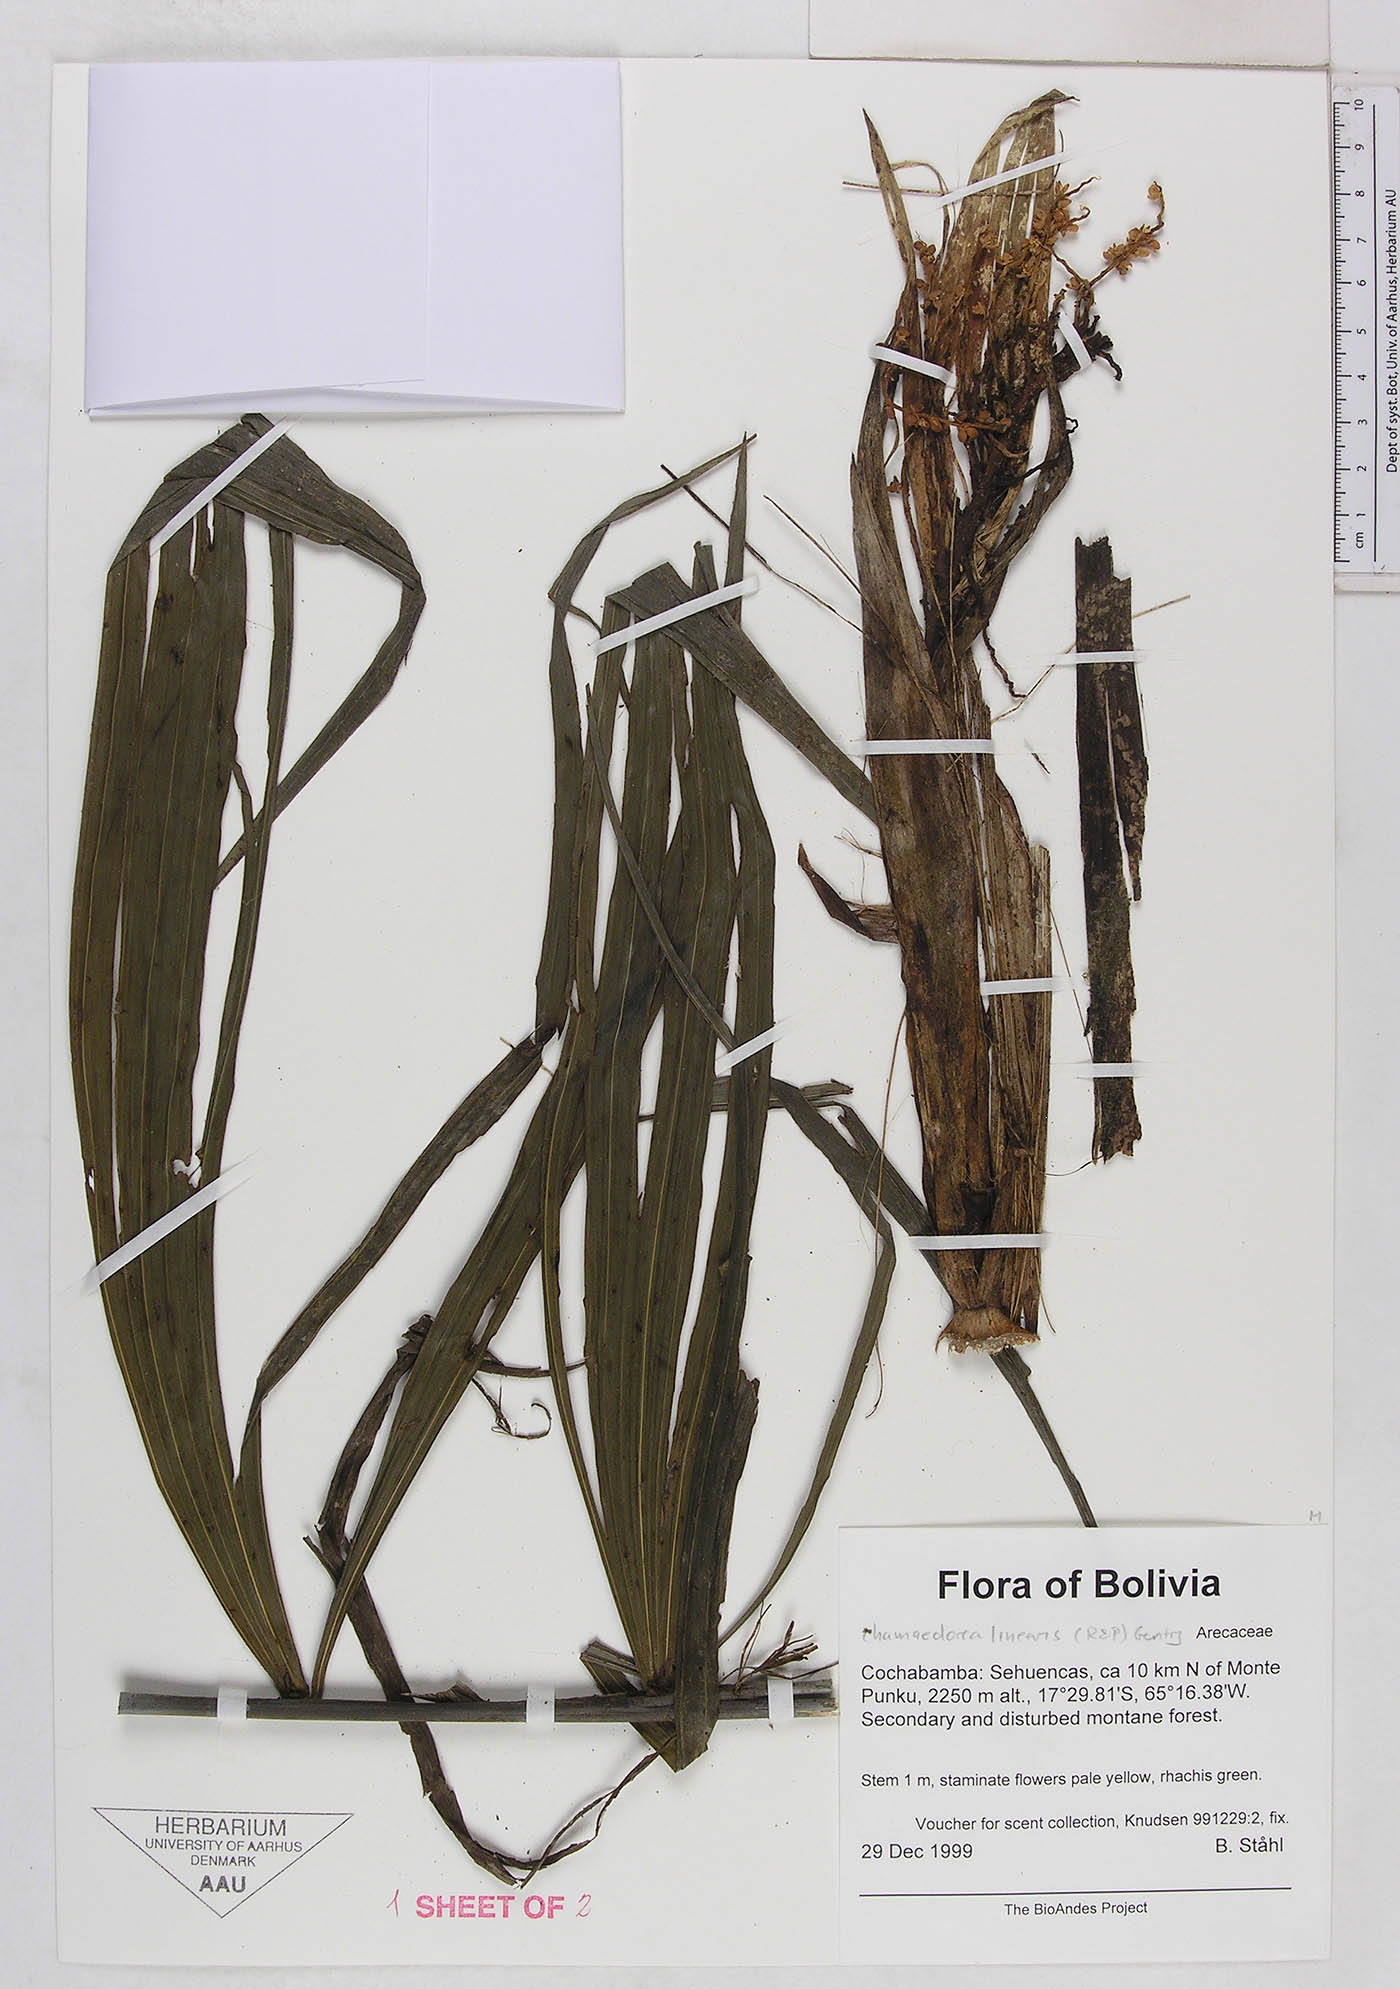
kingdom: Plantae
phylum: Tracheophyta
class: Liliopsida
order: Arecales
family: Arecaceae
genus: Chamaedorea
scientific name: Chamaedorea linearis
